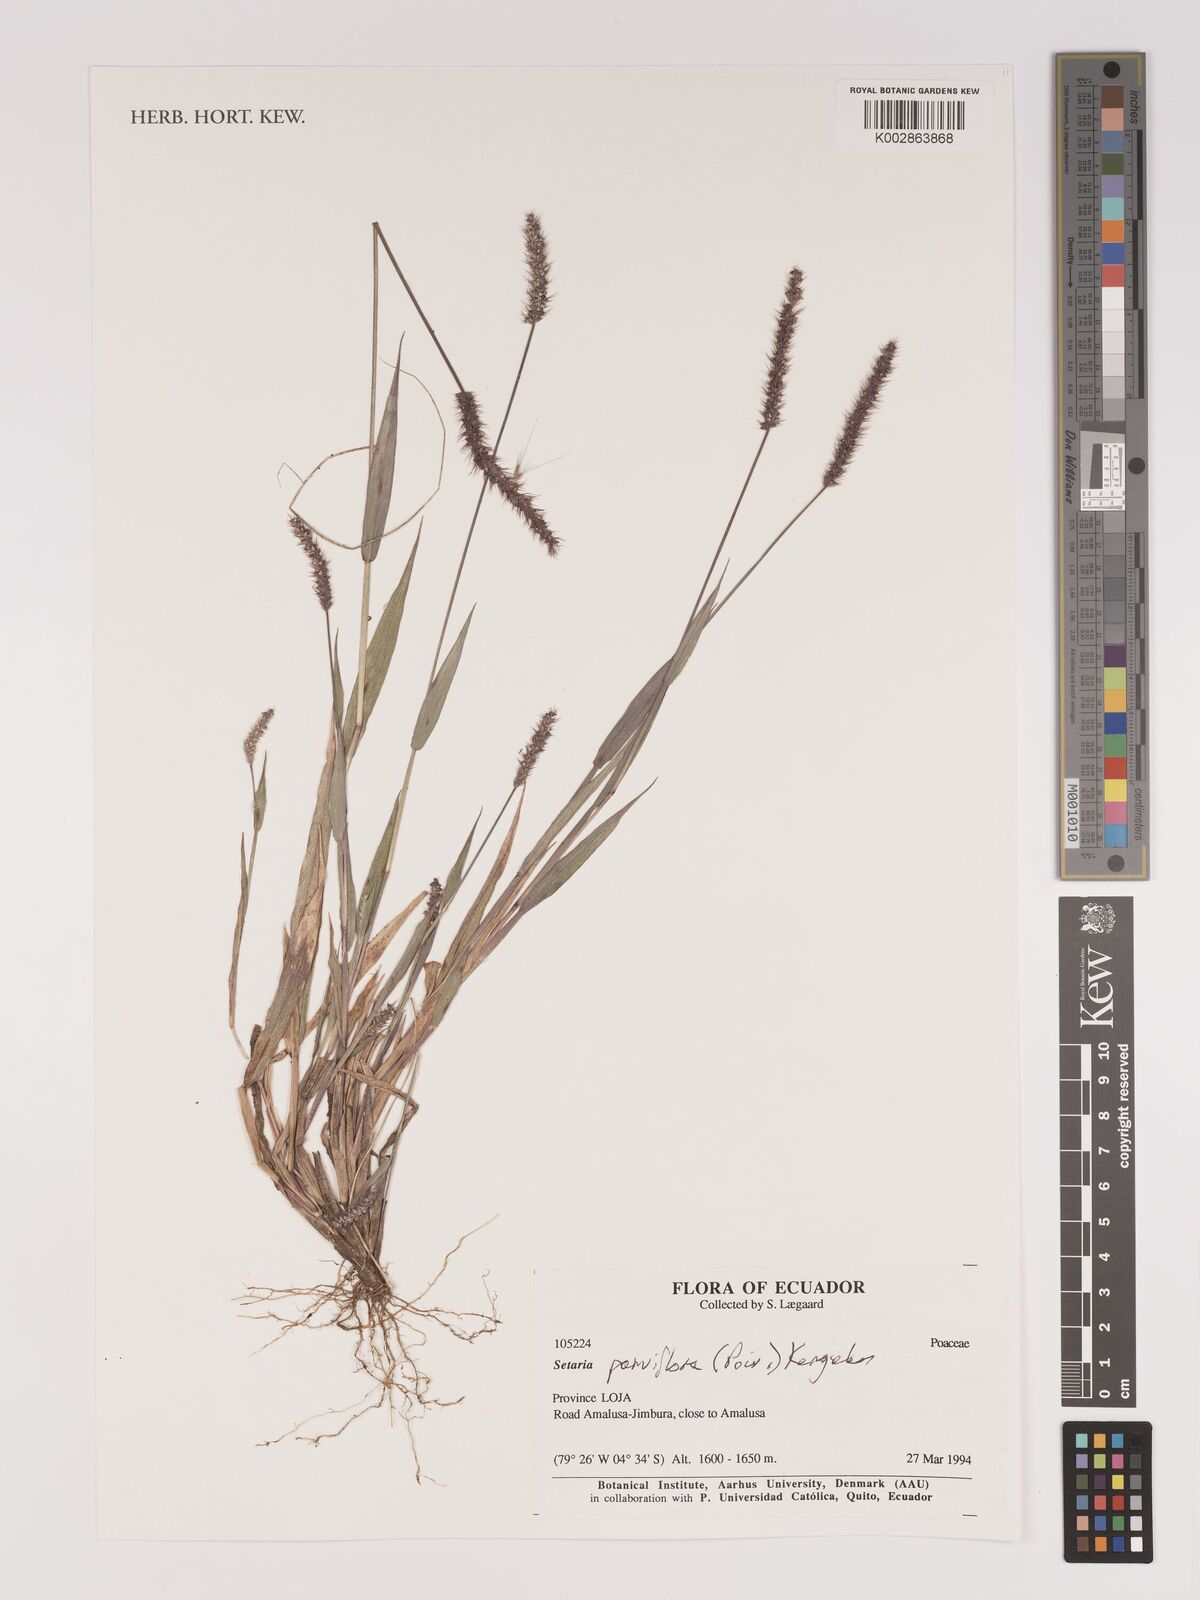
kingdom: Plantae
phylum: Tracheophyta
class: Liliopsida
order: Poales
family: Poaceae
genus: Setaria
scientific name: Setaria parviflora
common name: Knotroot bristle-grass
